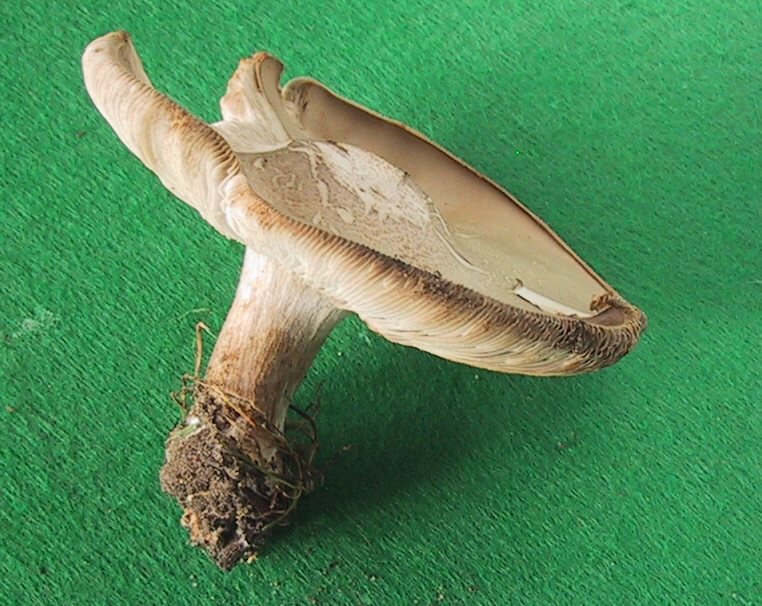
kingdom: Fungi
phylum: Basidiomycota
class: Agaricomycetes
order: Agaricales
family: Tricholomataceae
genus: Melanoleuca
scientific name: Melanoleuca
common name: munkehat
